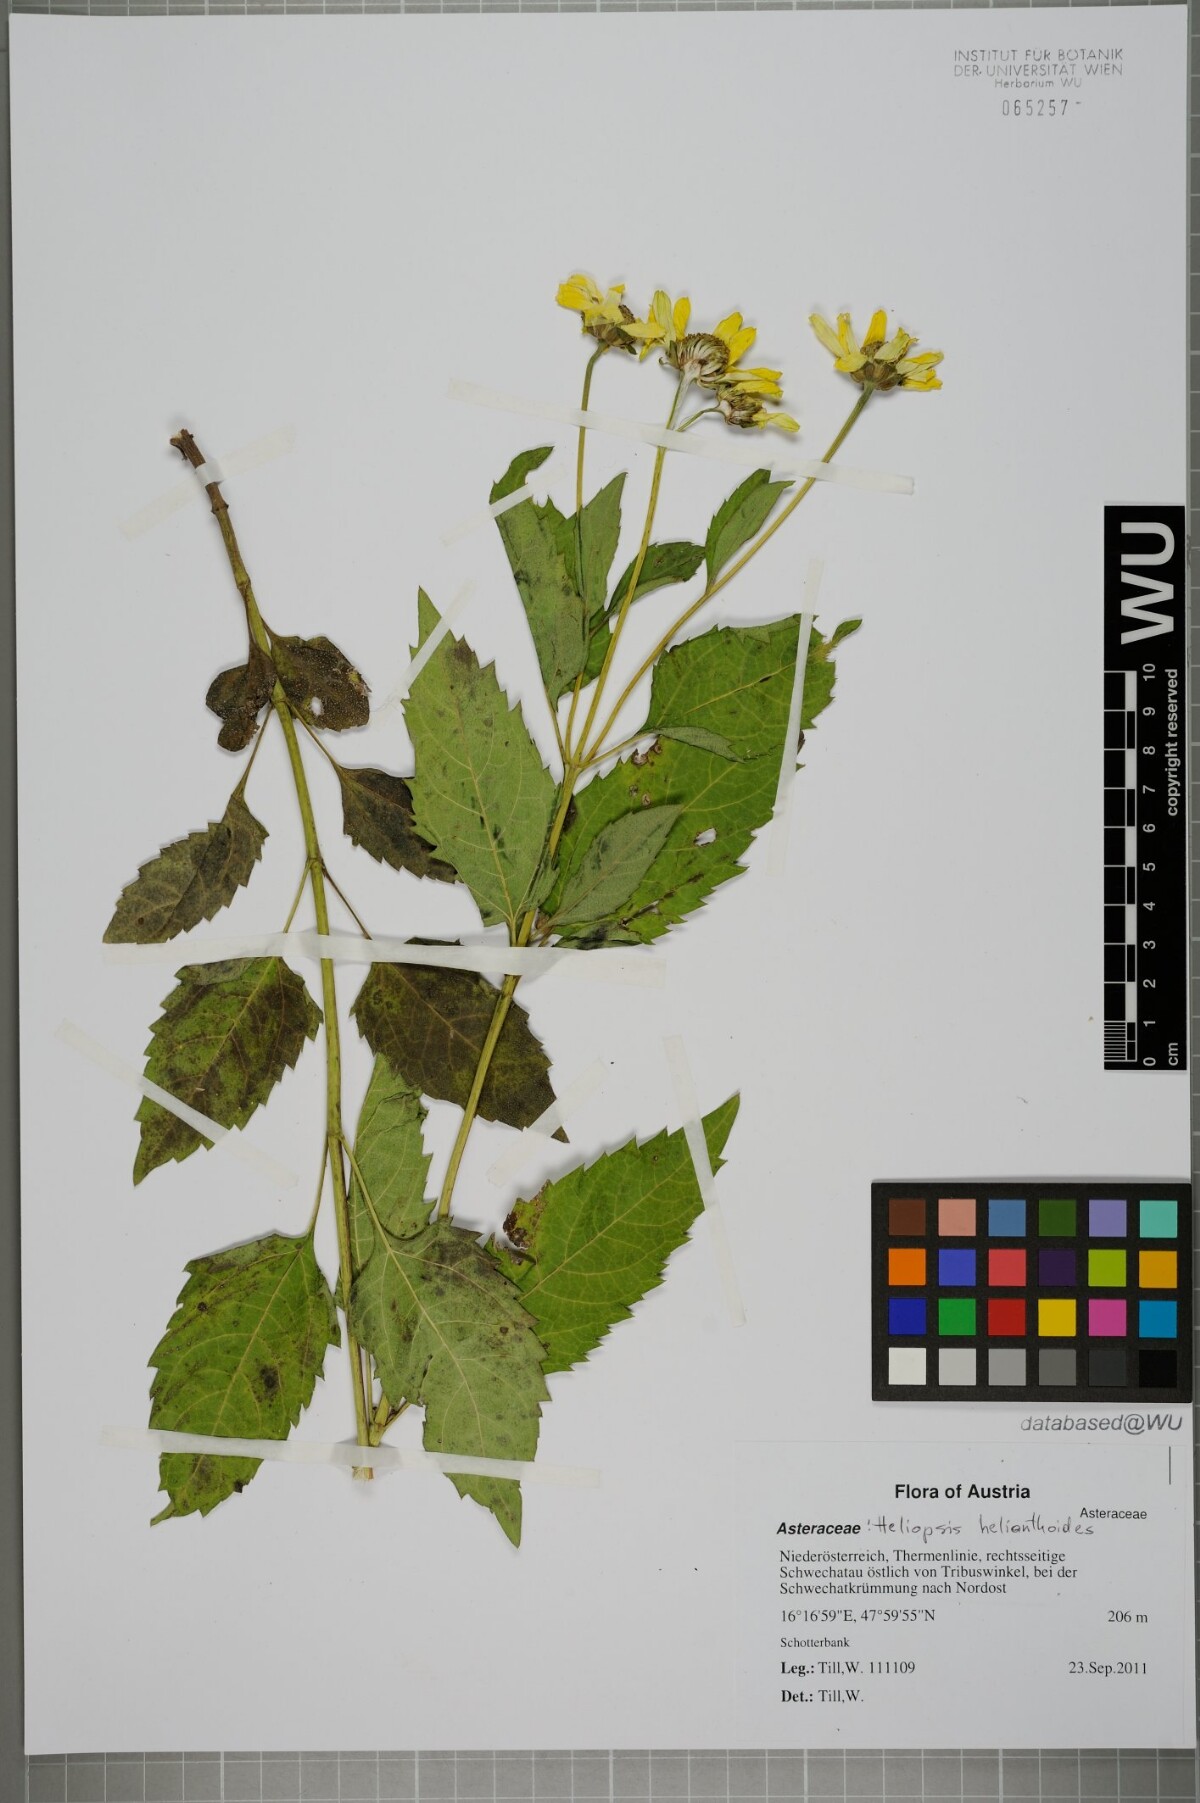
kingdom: Plantae
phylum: Tracheophyta
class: Magnoliopsida
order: Asterales
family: Asteraceae
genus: Heliopsis
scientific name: Heliopsis helianthoides
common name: False sunflower
